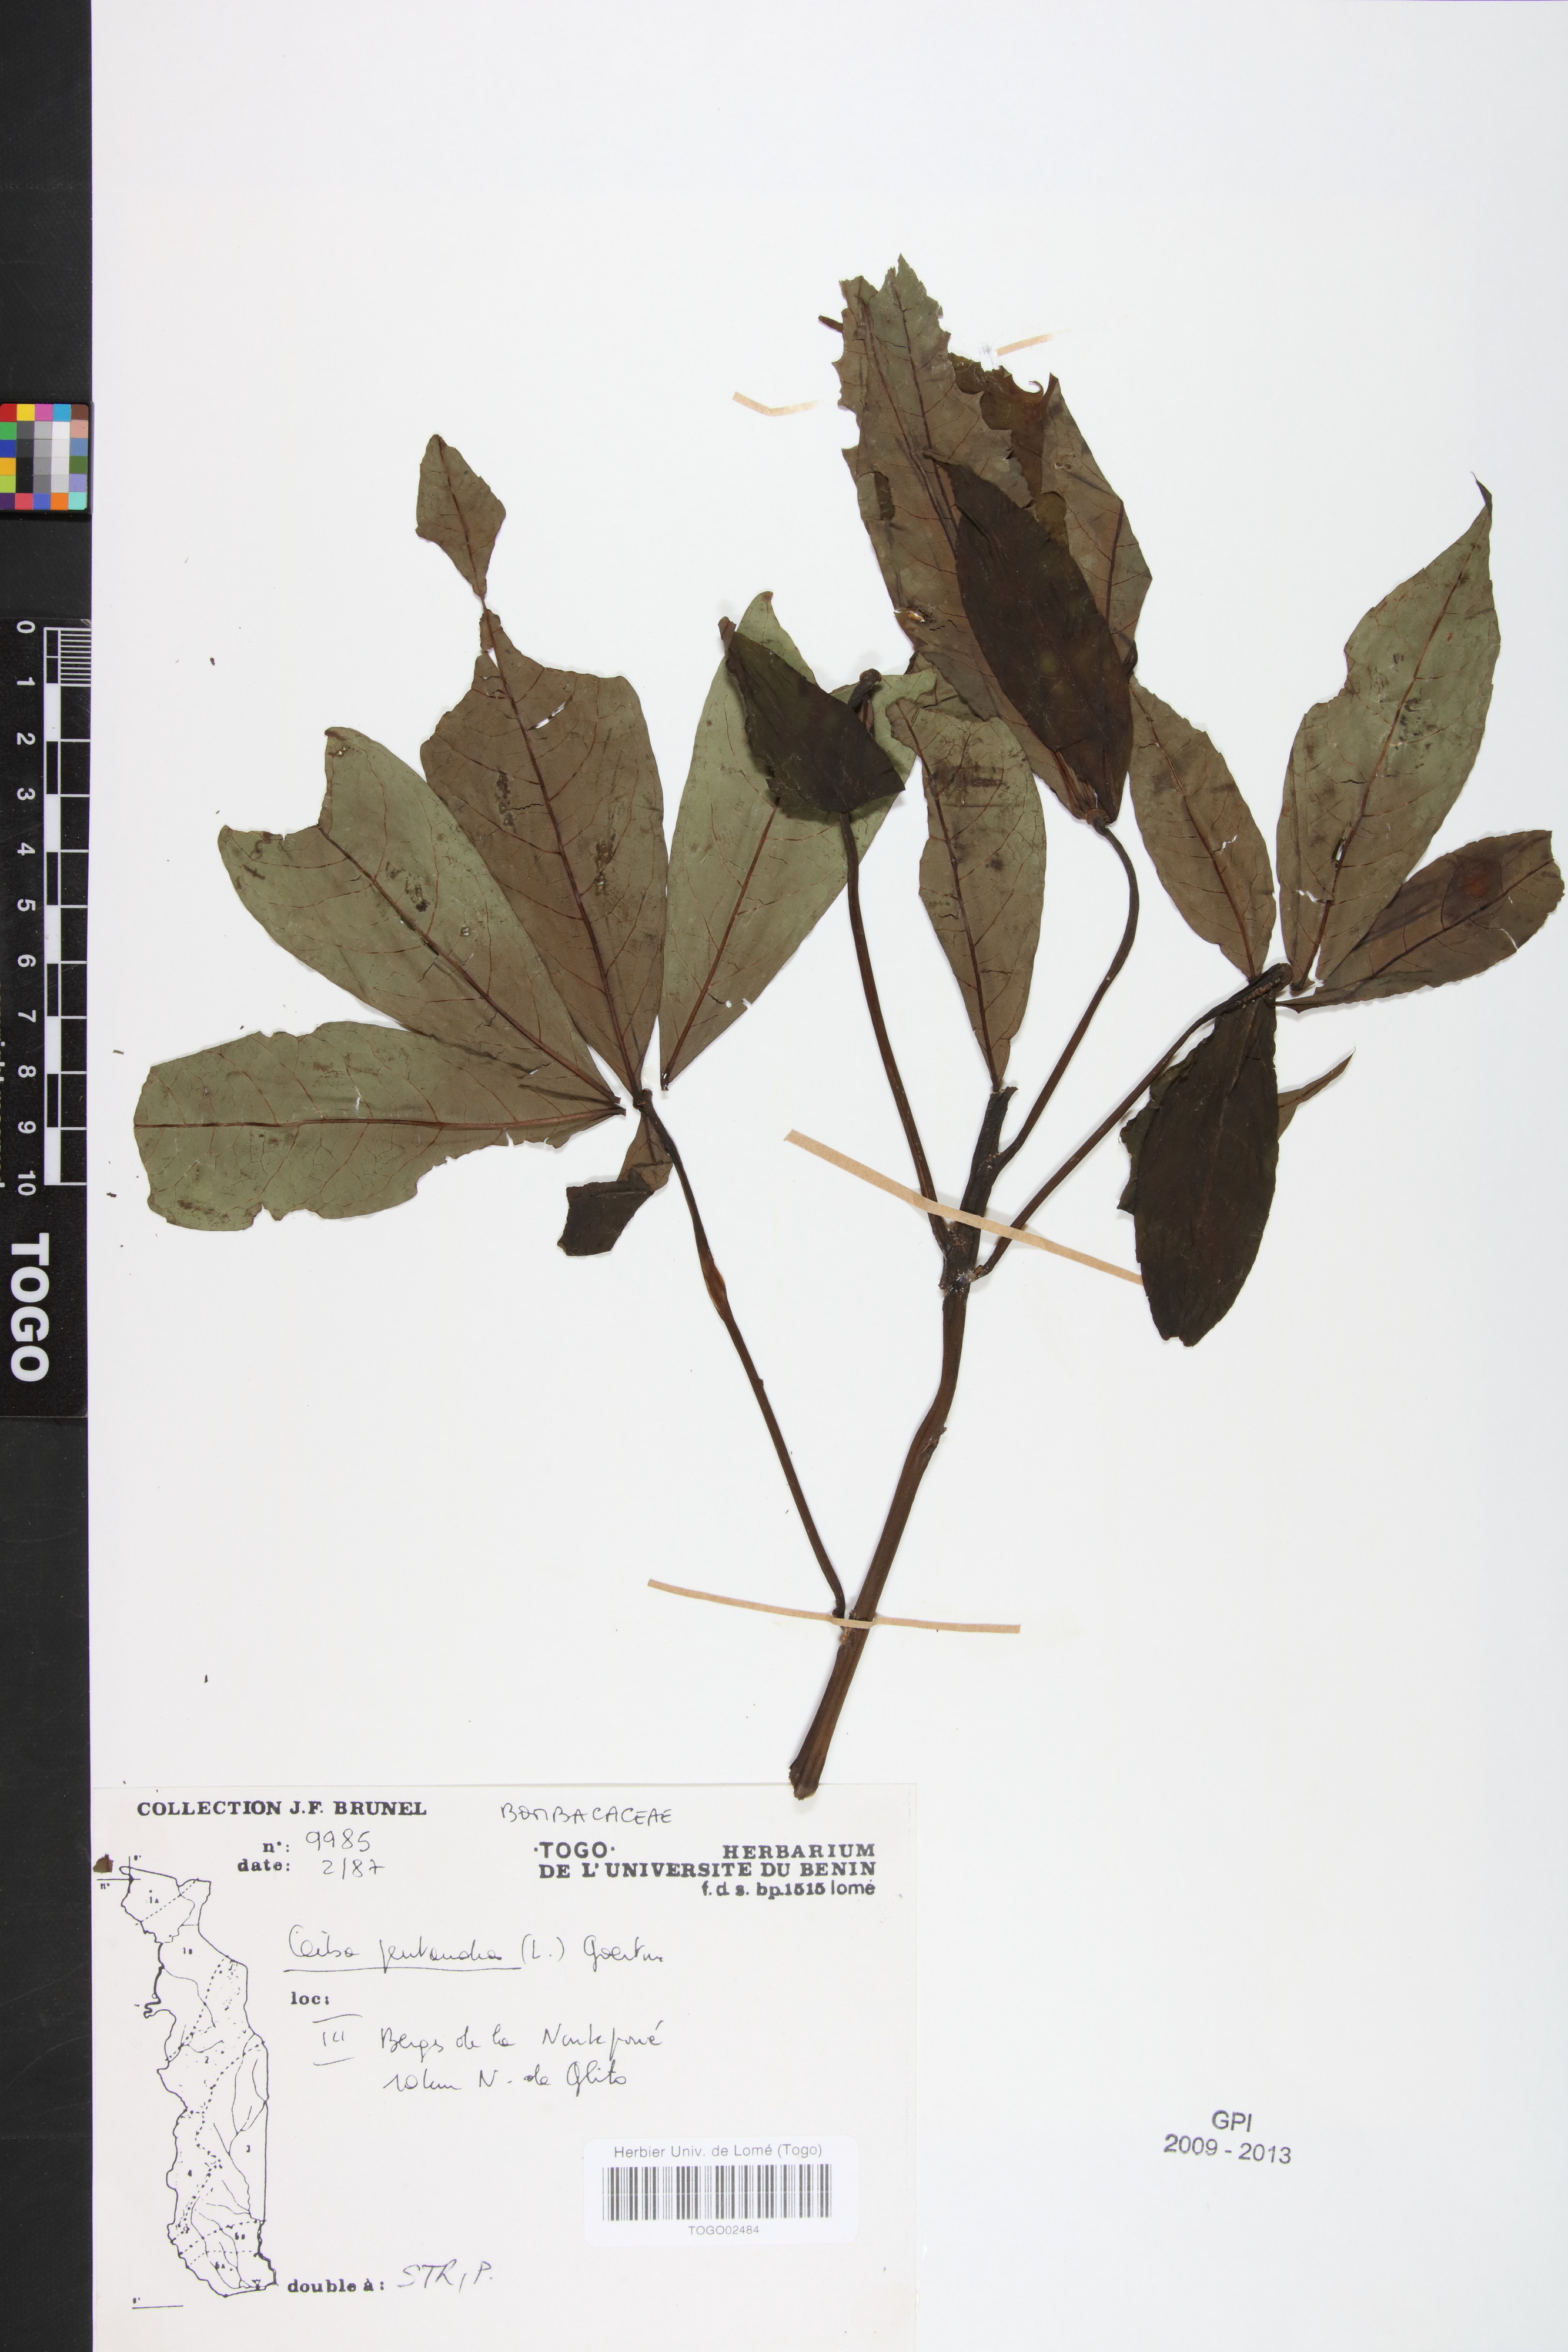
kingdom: Plantae
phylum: Tracheophyta
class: Magnoliopsida
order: Malvales
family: Malvaceae
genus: Ceiba
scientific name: Ceiba pentandra
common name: Kapok
